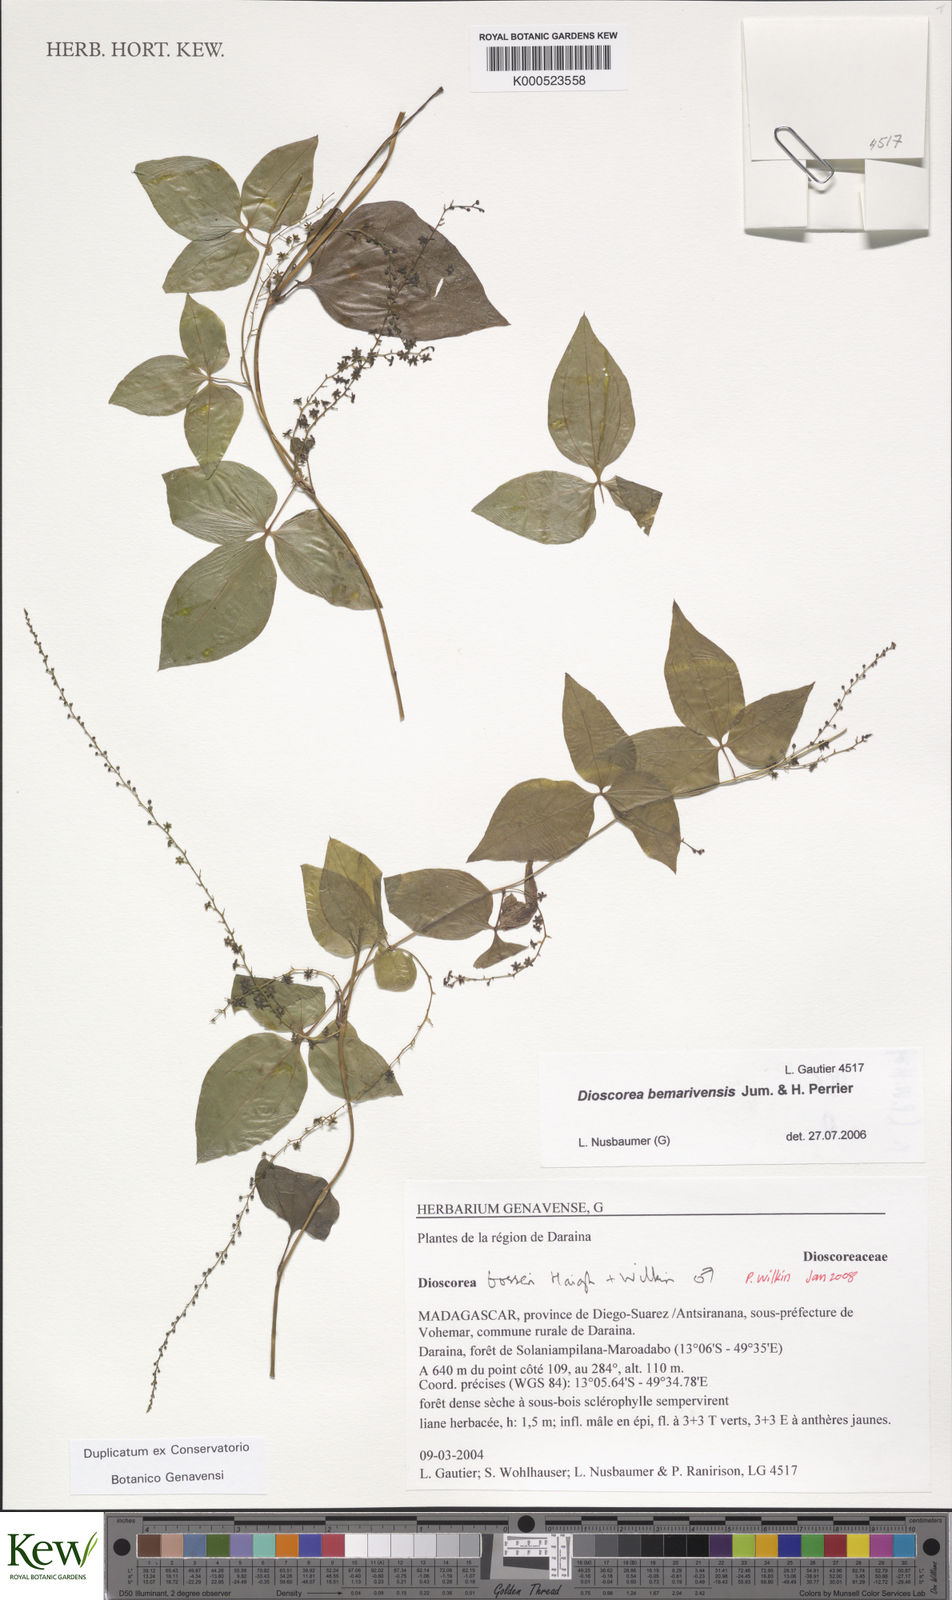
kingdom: Plantae
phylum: Tracheophyta
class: Liliopsida
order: Dioscoreales
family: Dioscoreaceae
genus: Dioscorea
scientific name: Dioscorea bosseri
